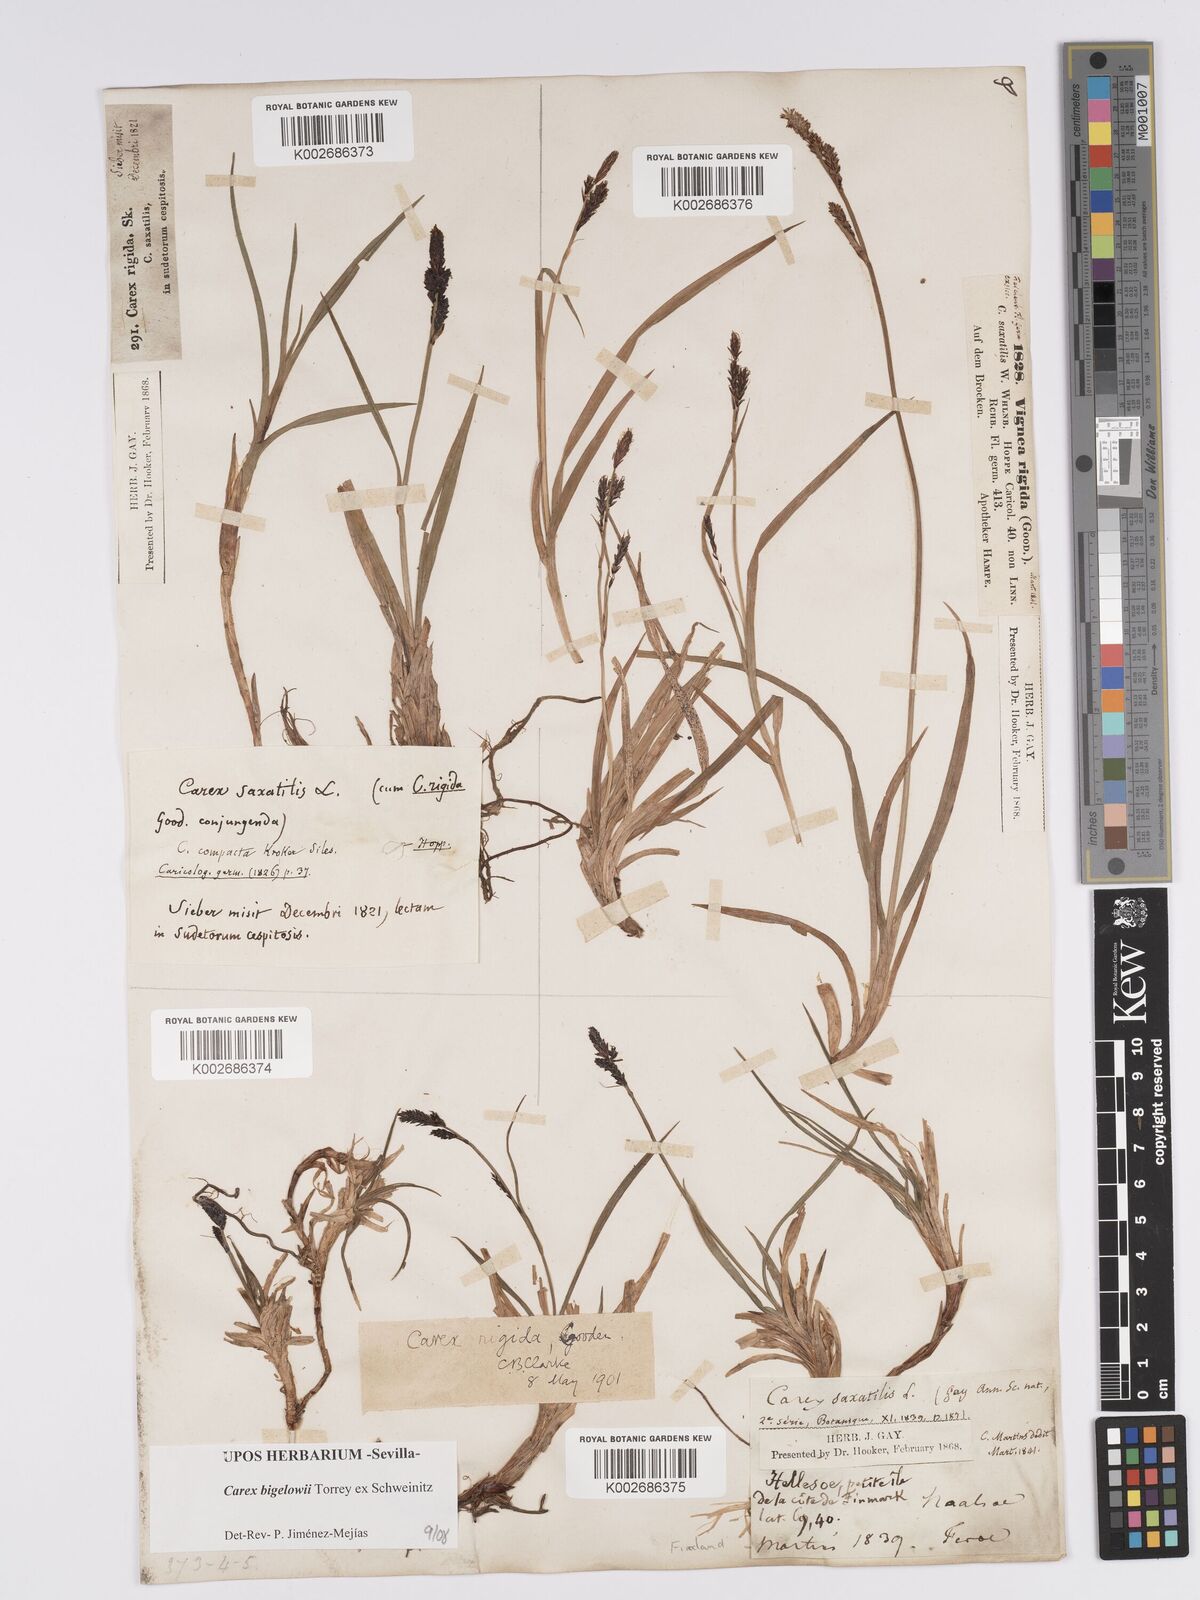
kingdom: Plantae
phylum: Tracheophyta
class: Liliopsida
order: Poales
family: Cyperaceae
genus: Carex
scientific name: Carex bigelowii
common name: Stiff sedge
